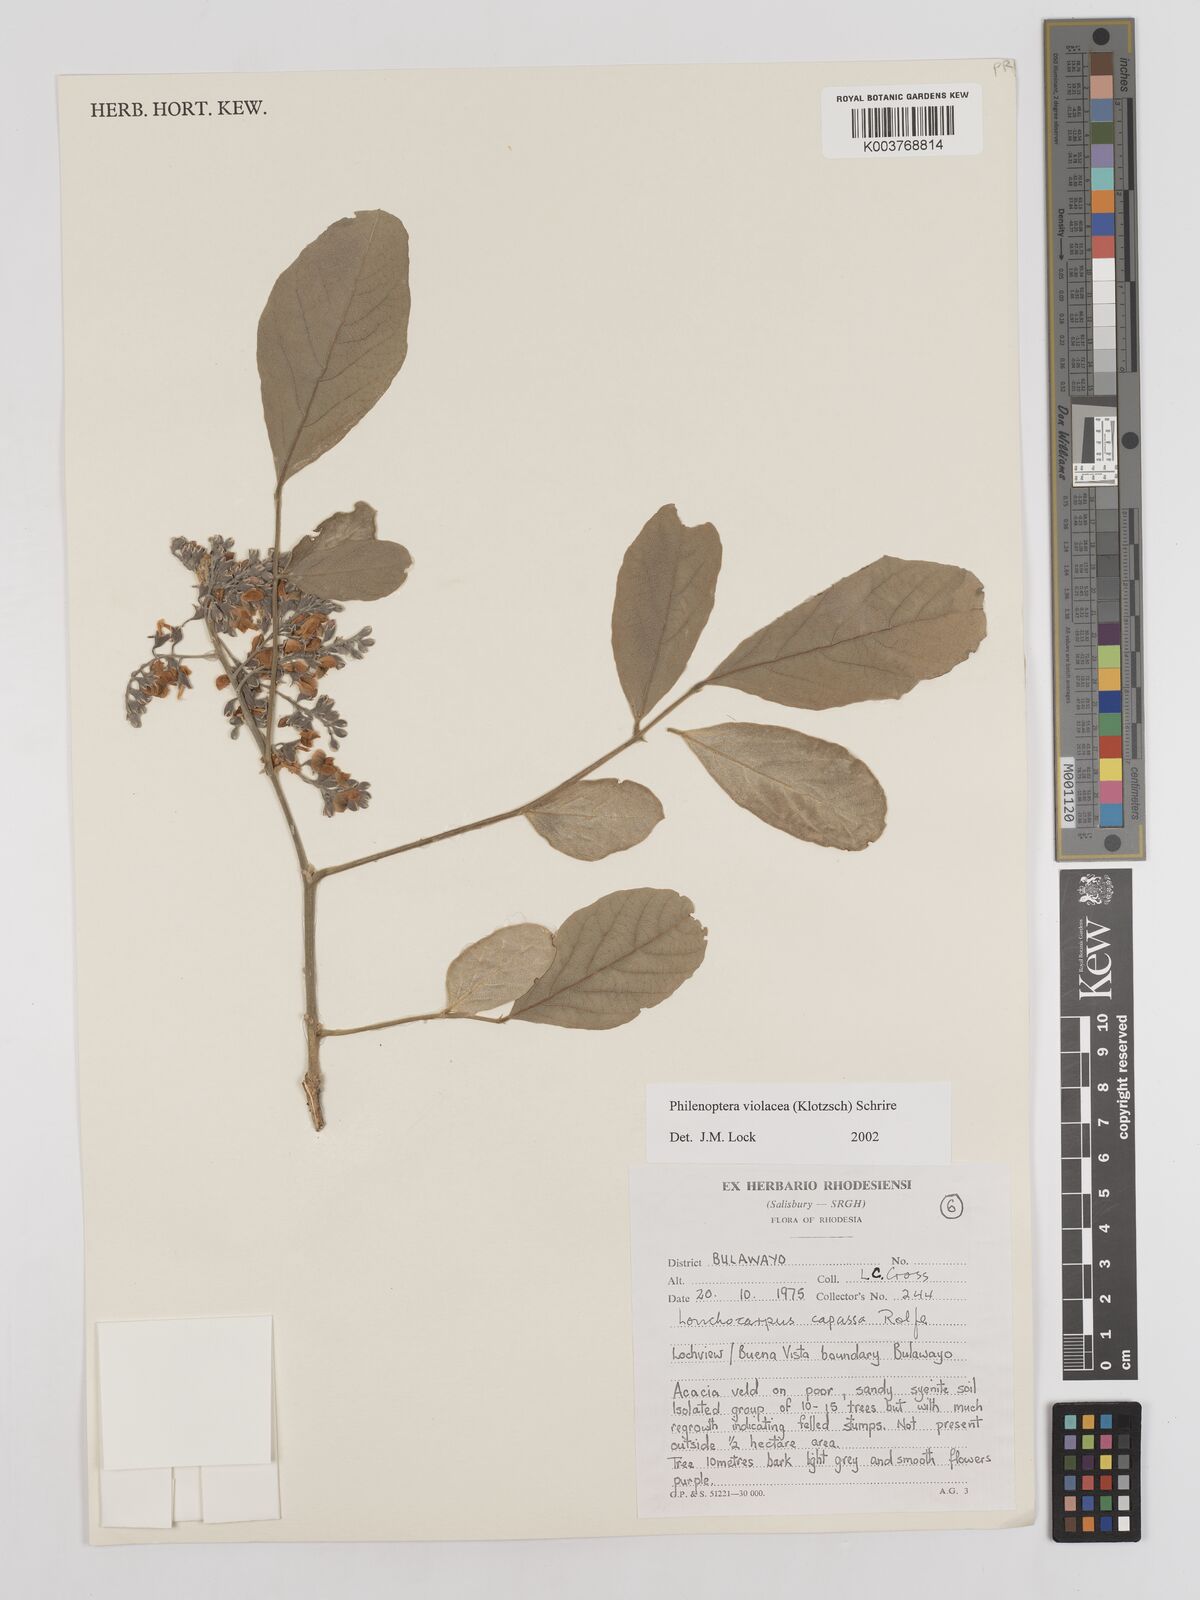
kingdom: Plantae
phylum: Tracheophyta
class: Magnoliopsida
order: Fabales
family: Fabaceae
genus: Philenoptera
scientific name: Philenoptera violacea
